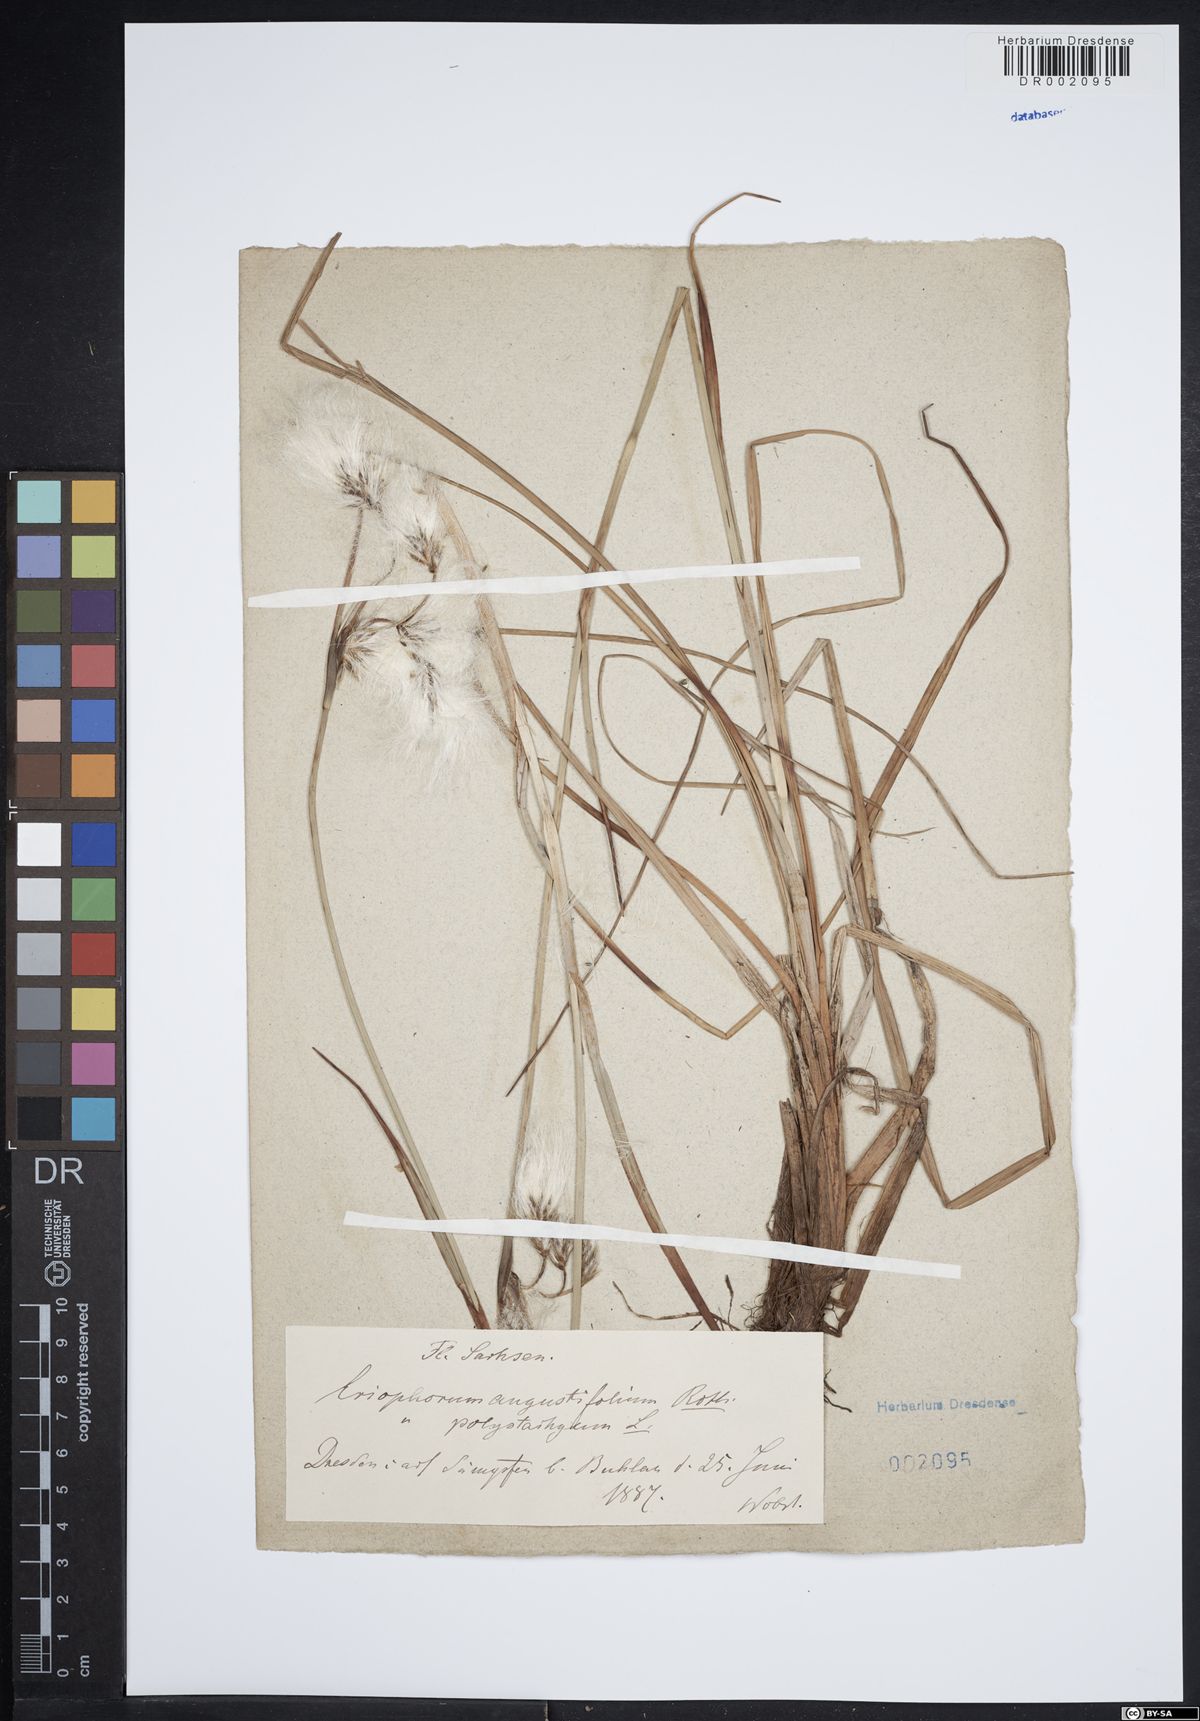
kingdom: Plantae
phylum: Tracheophyta
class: Liliopsida
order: Poales
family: Cyperaceae
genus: Eriophorum
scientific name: Eriophorum angustifolium
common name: Common cottongrass
